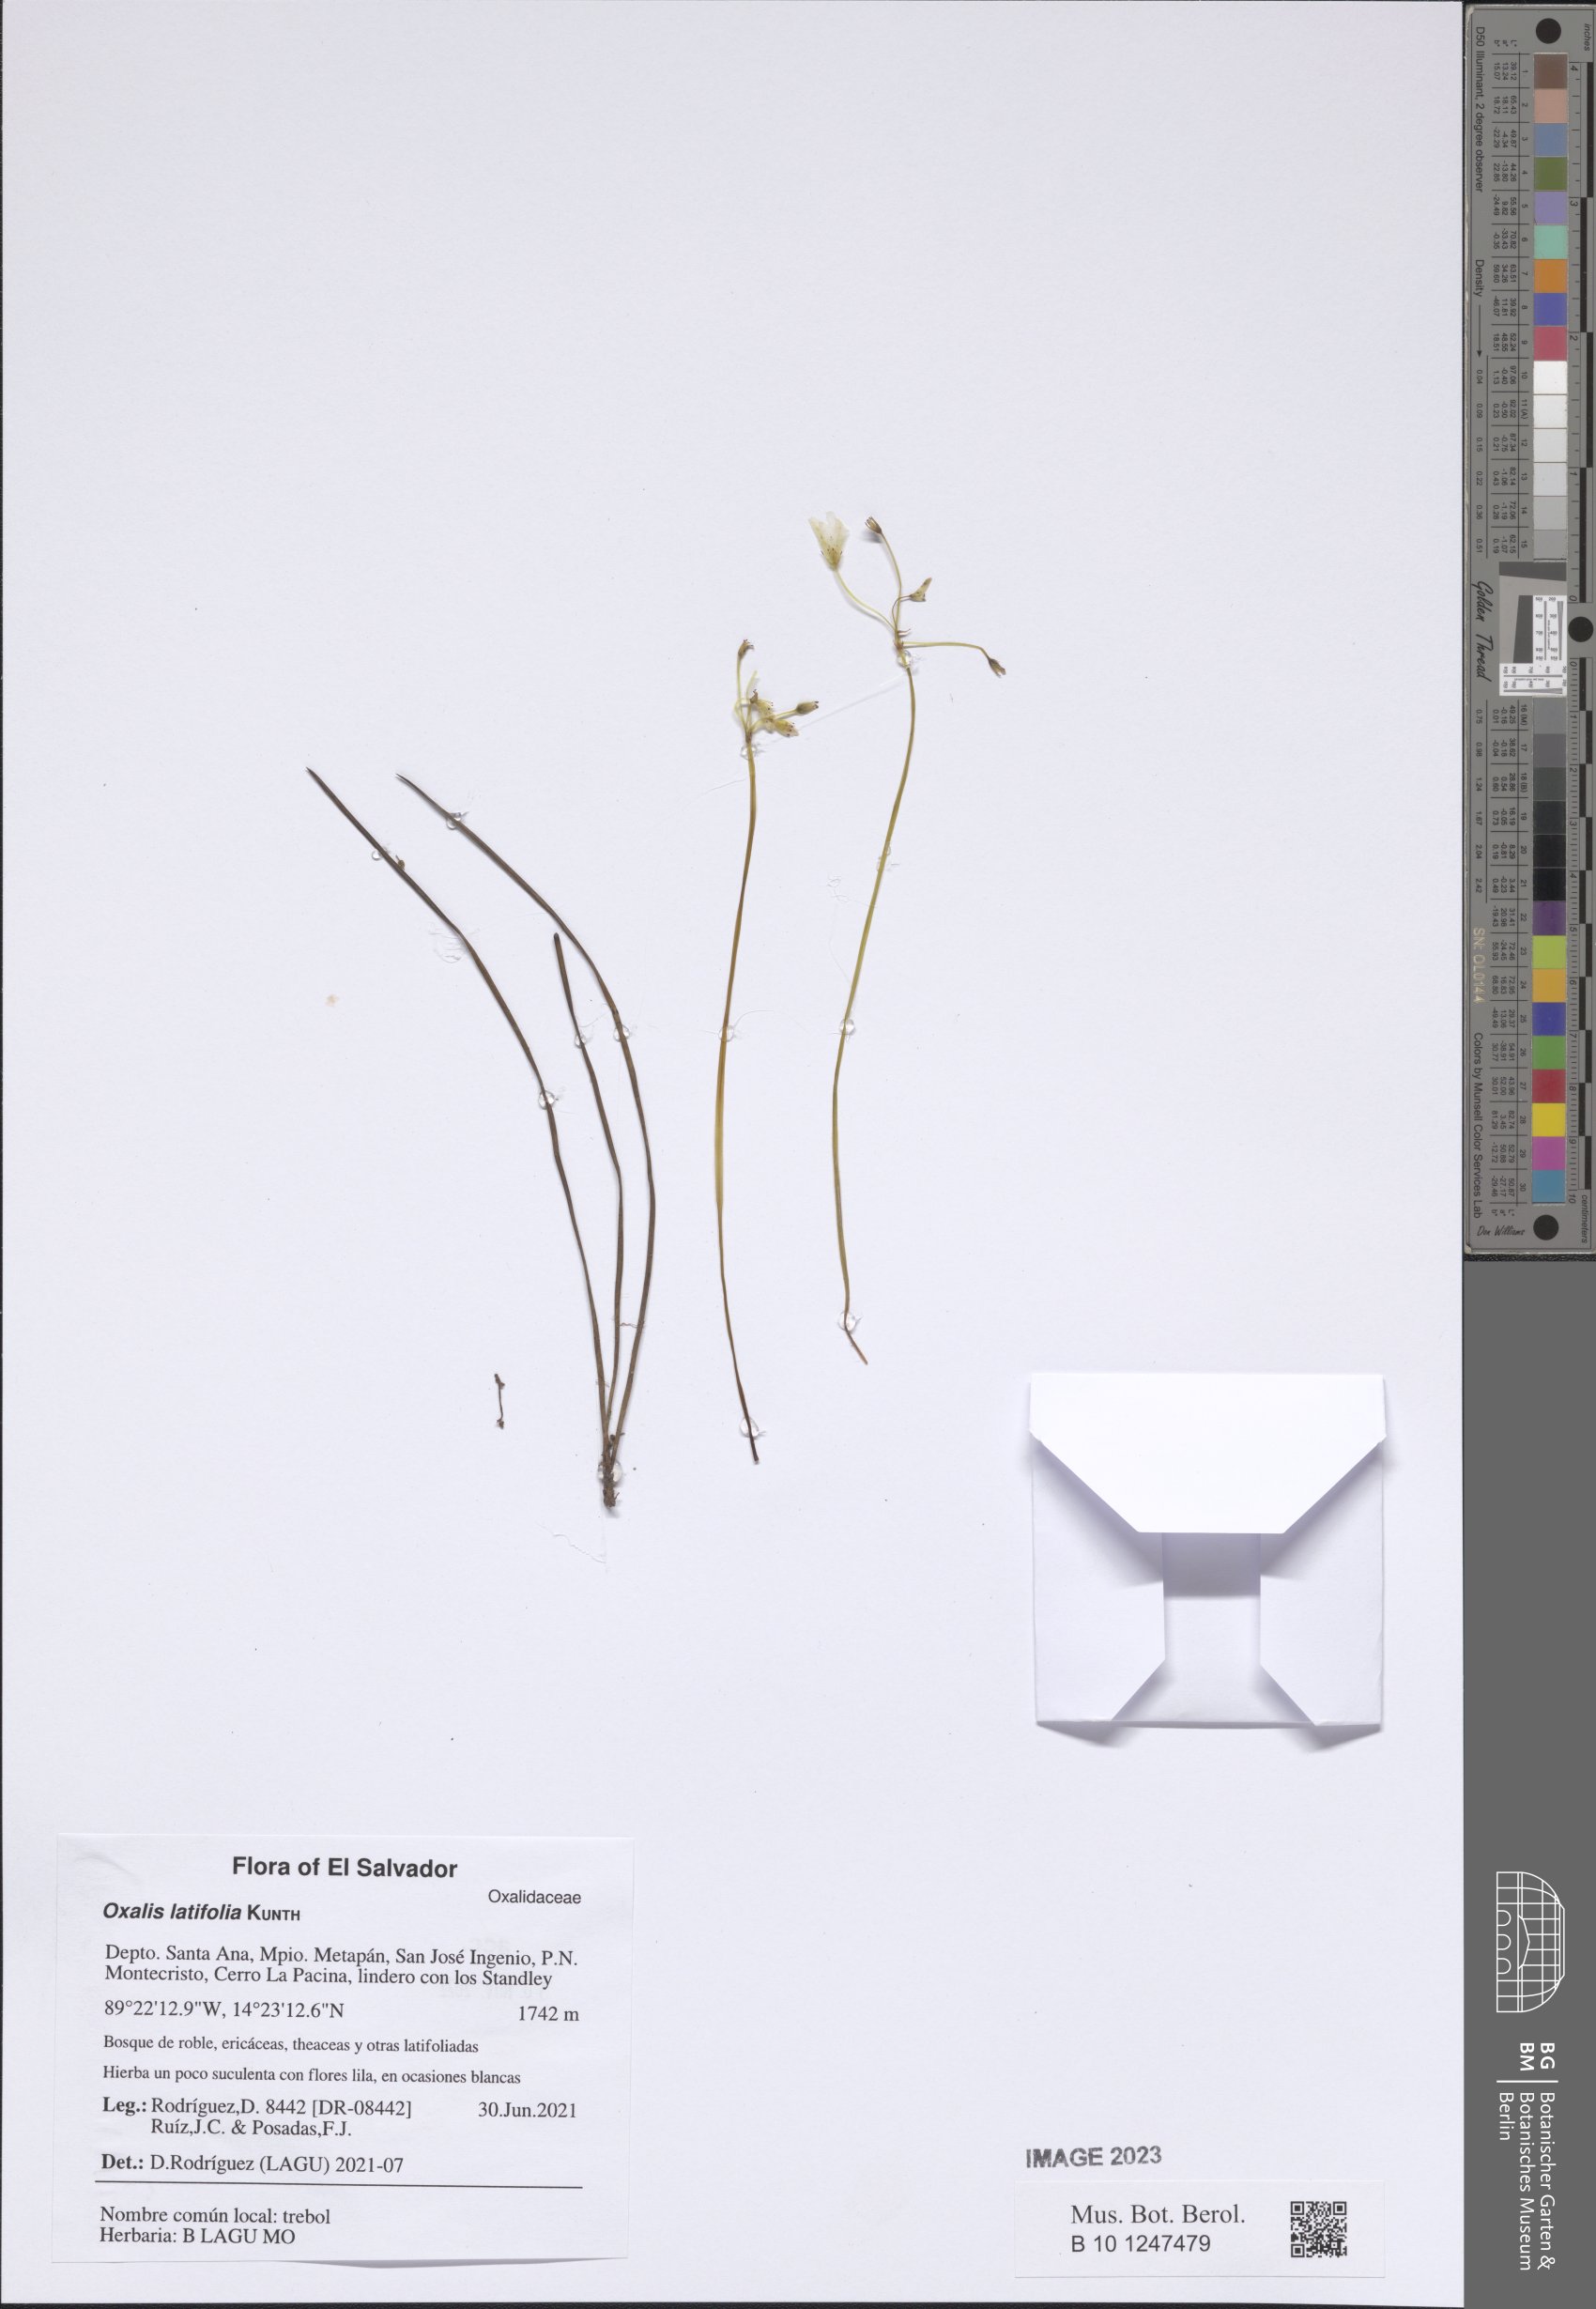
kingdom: Plantae
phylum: Tracheophyta
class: Magnoliopsida
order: Oxalidales
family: Oxalidaceae
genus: Oxalis
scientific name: Oxalis latifolia
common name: Garden pink-sorrel
